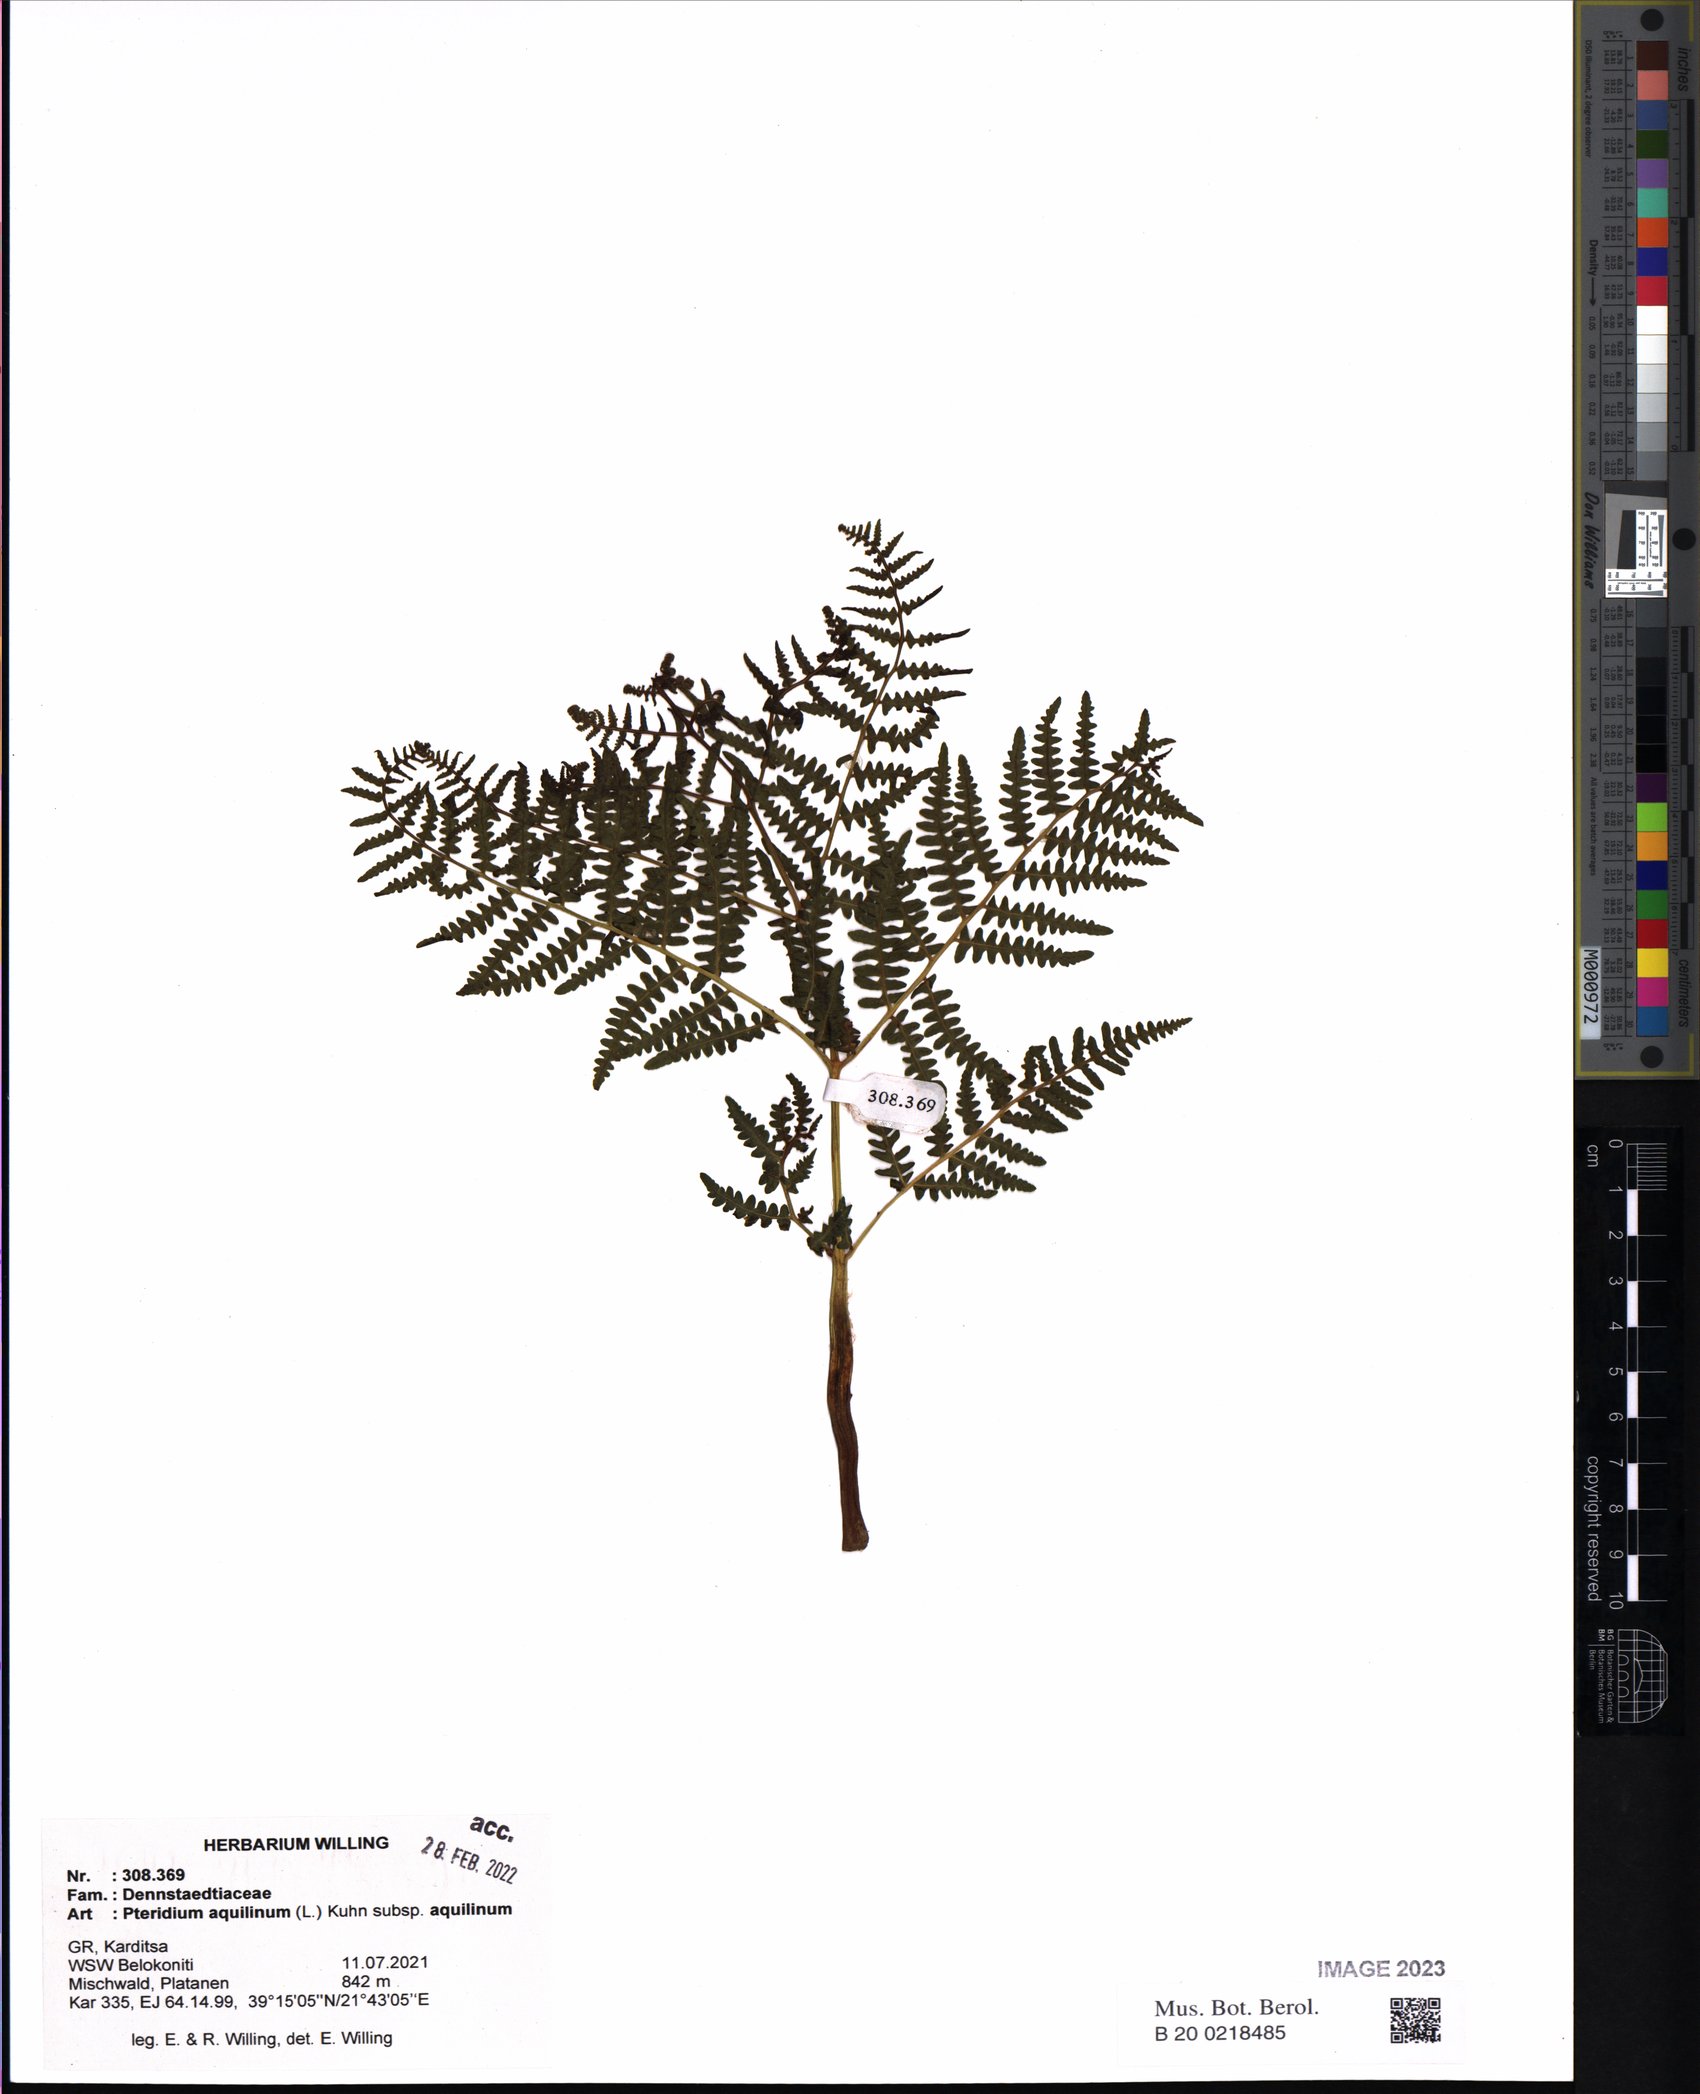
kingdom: Plantae
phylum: Tracheophyta
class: Polypodiopsida
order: Polypodiales
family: Dennstaedtiaceae
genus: Pteridium
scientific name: Pteridium aquilinum
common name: Bracken
